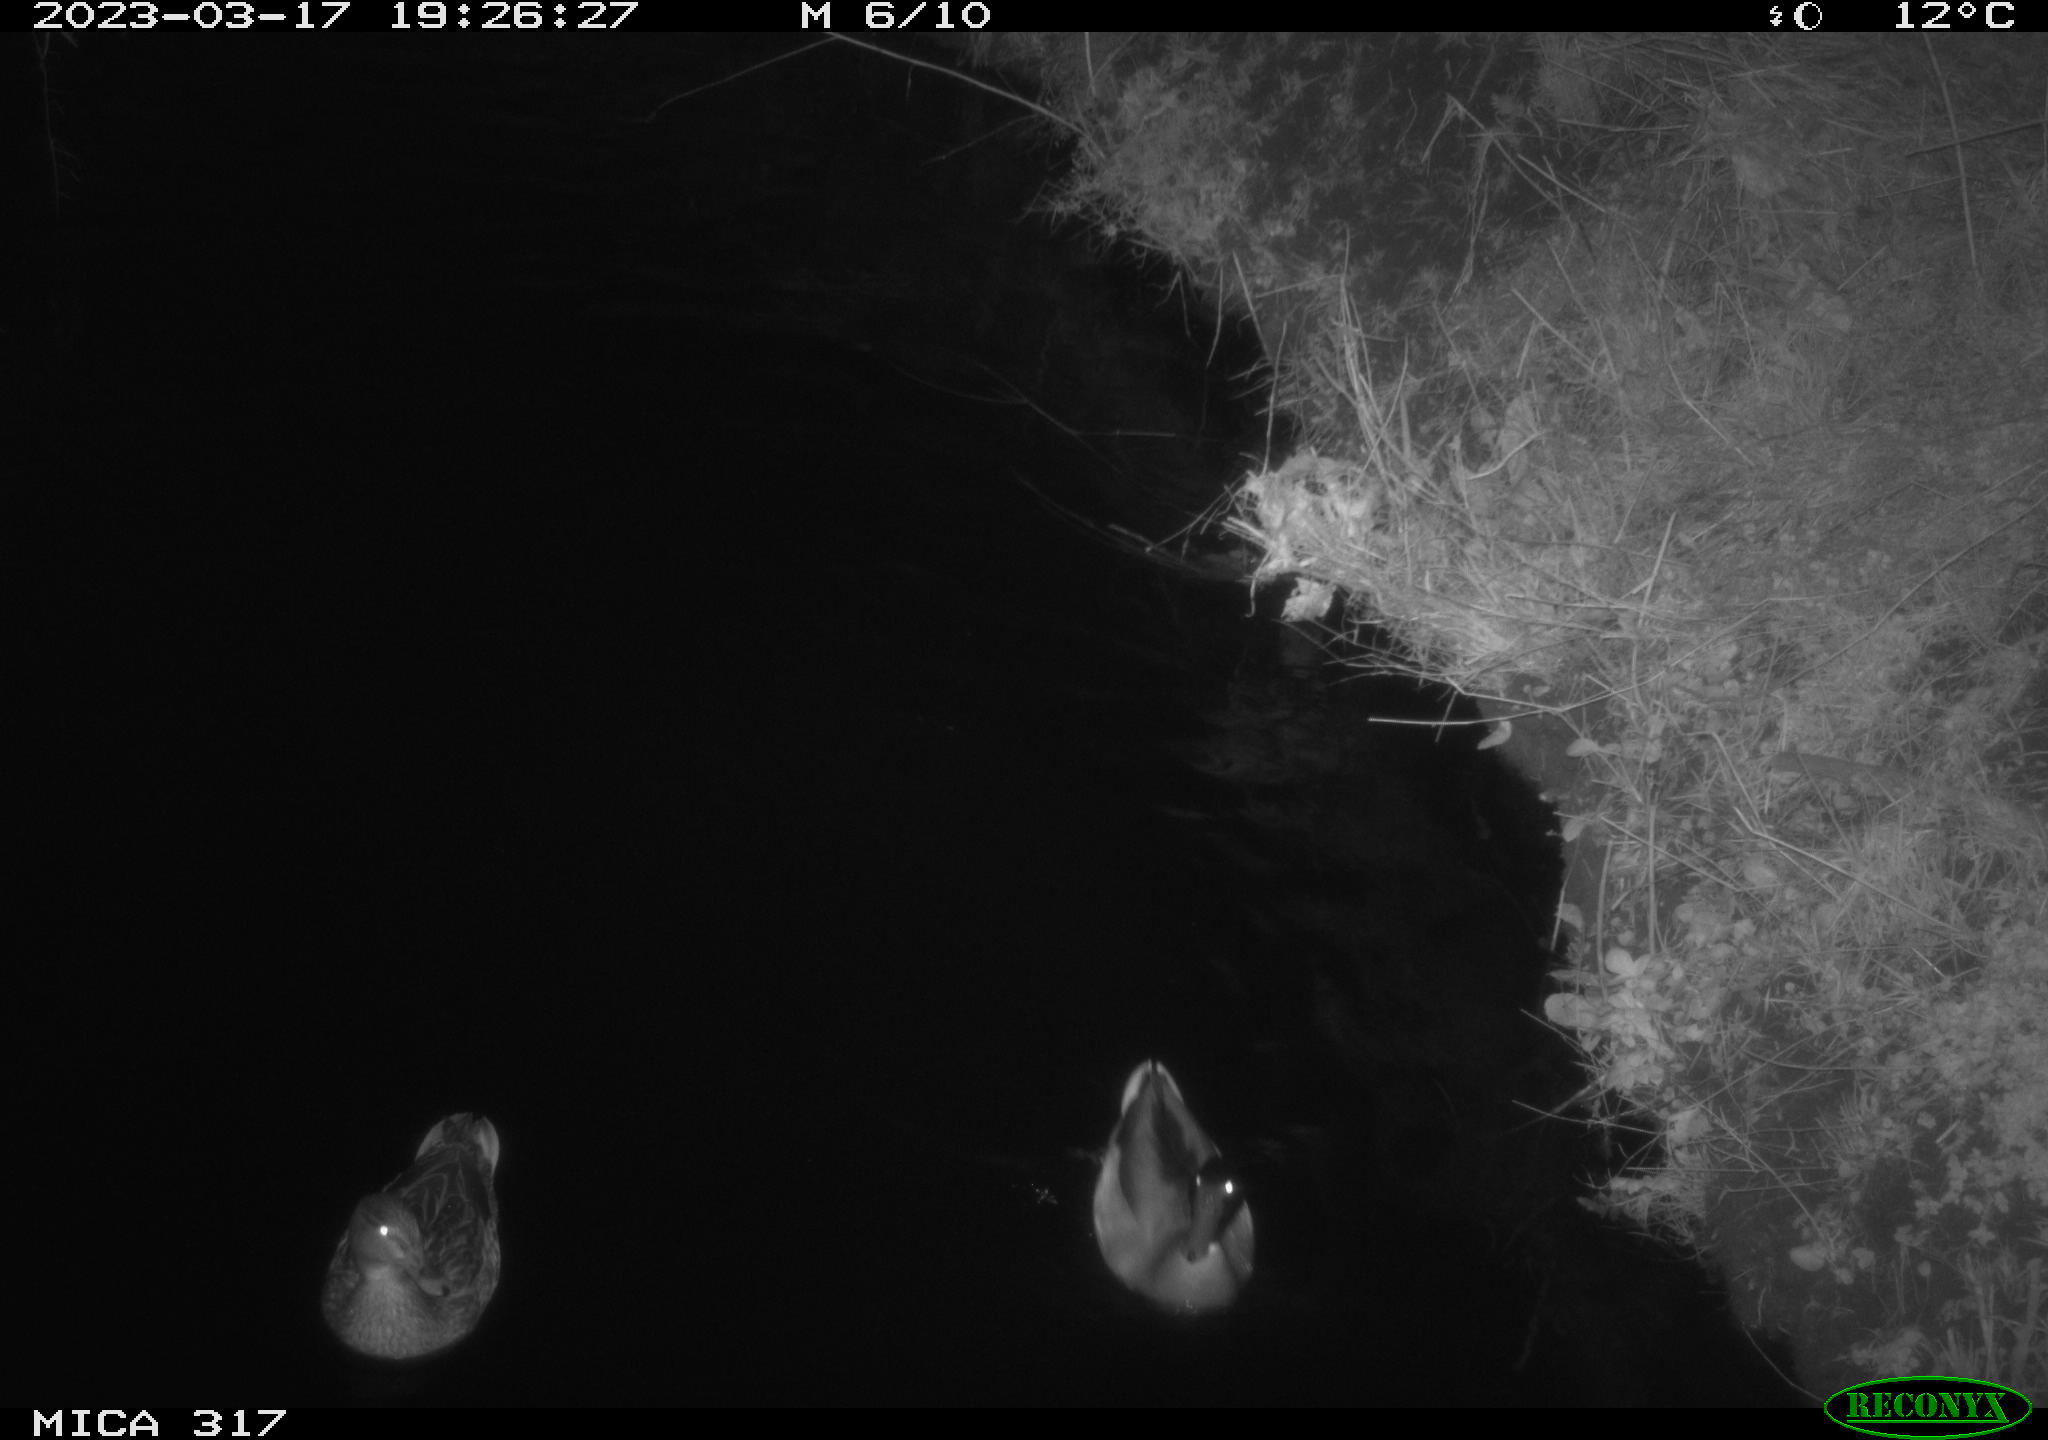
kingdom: Animalia
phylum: Chordata
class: Aves
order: Anseriformes
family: Anatidae
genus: Anas
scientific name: Anas
